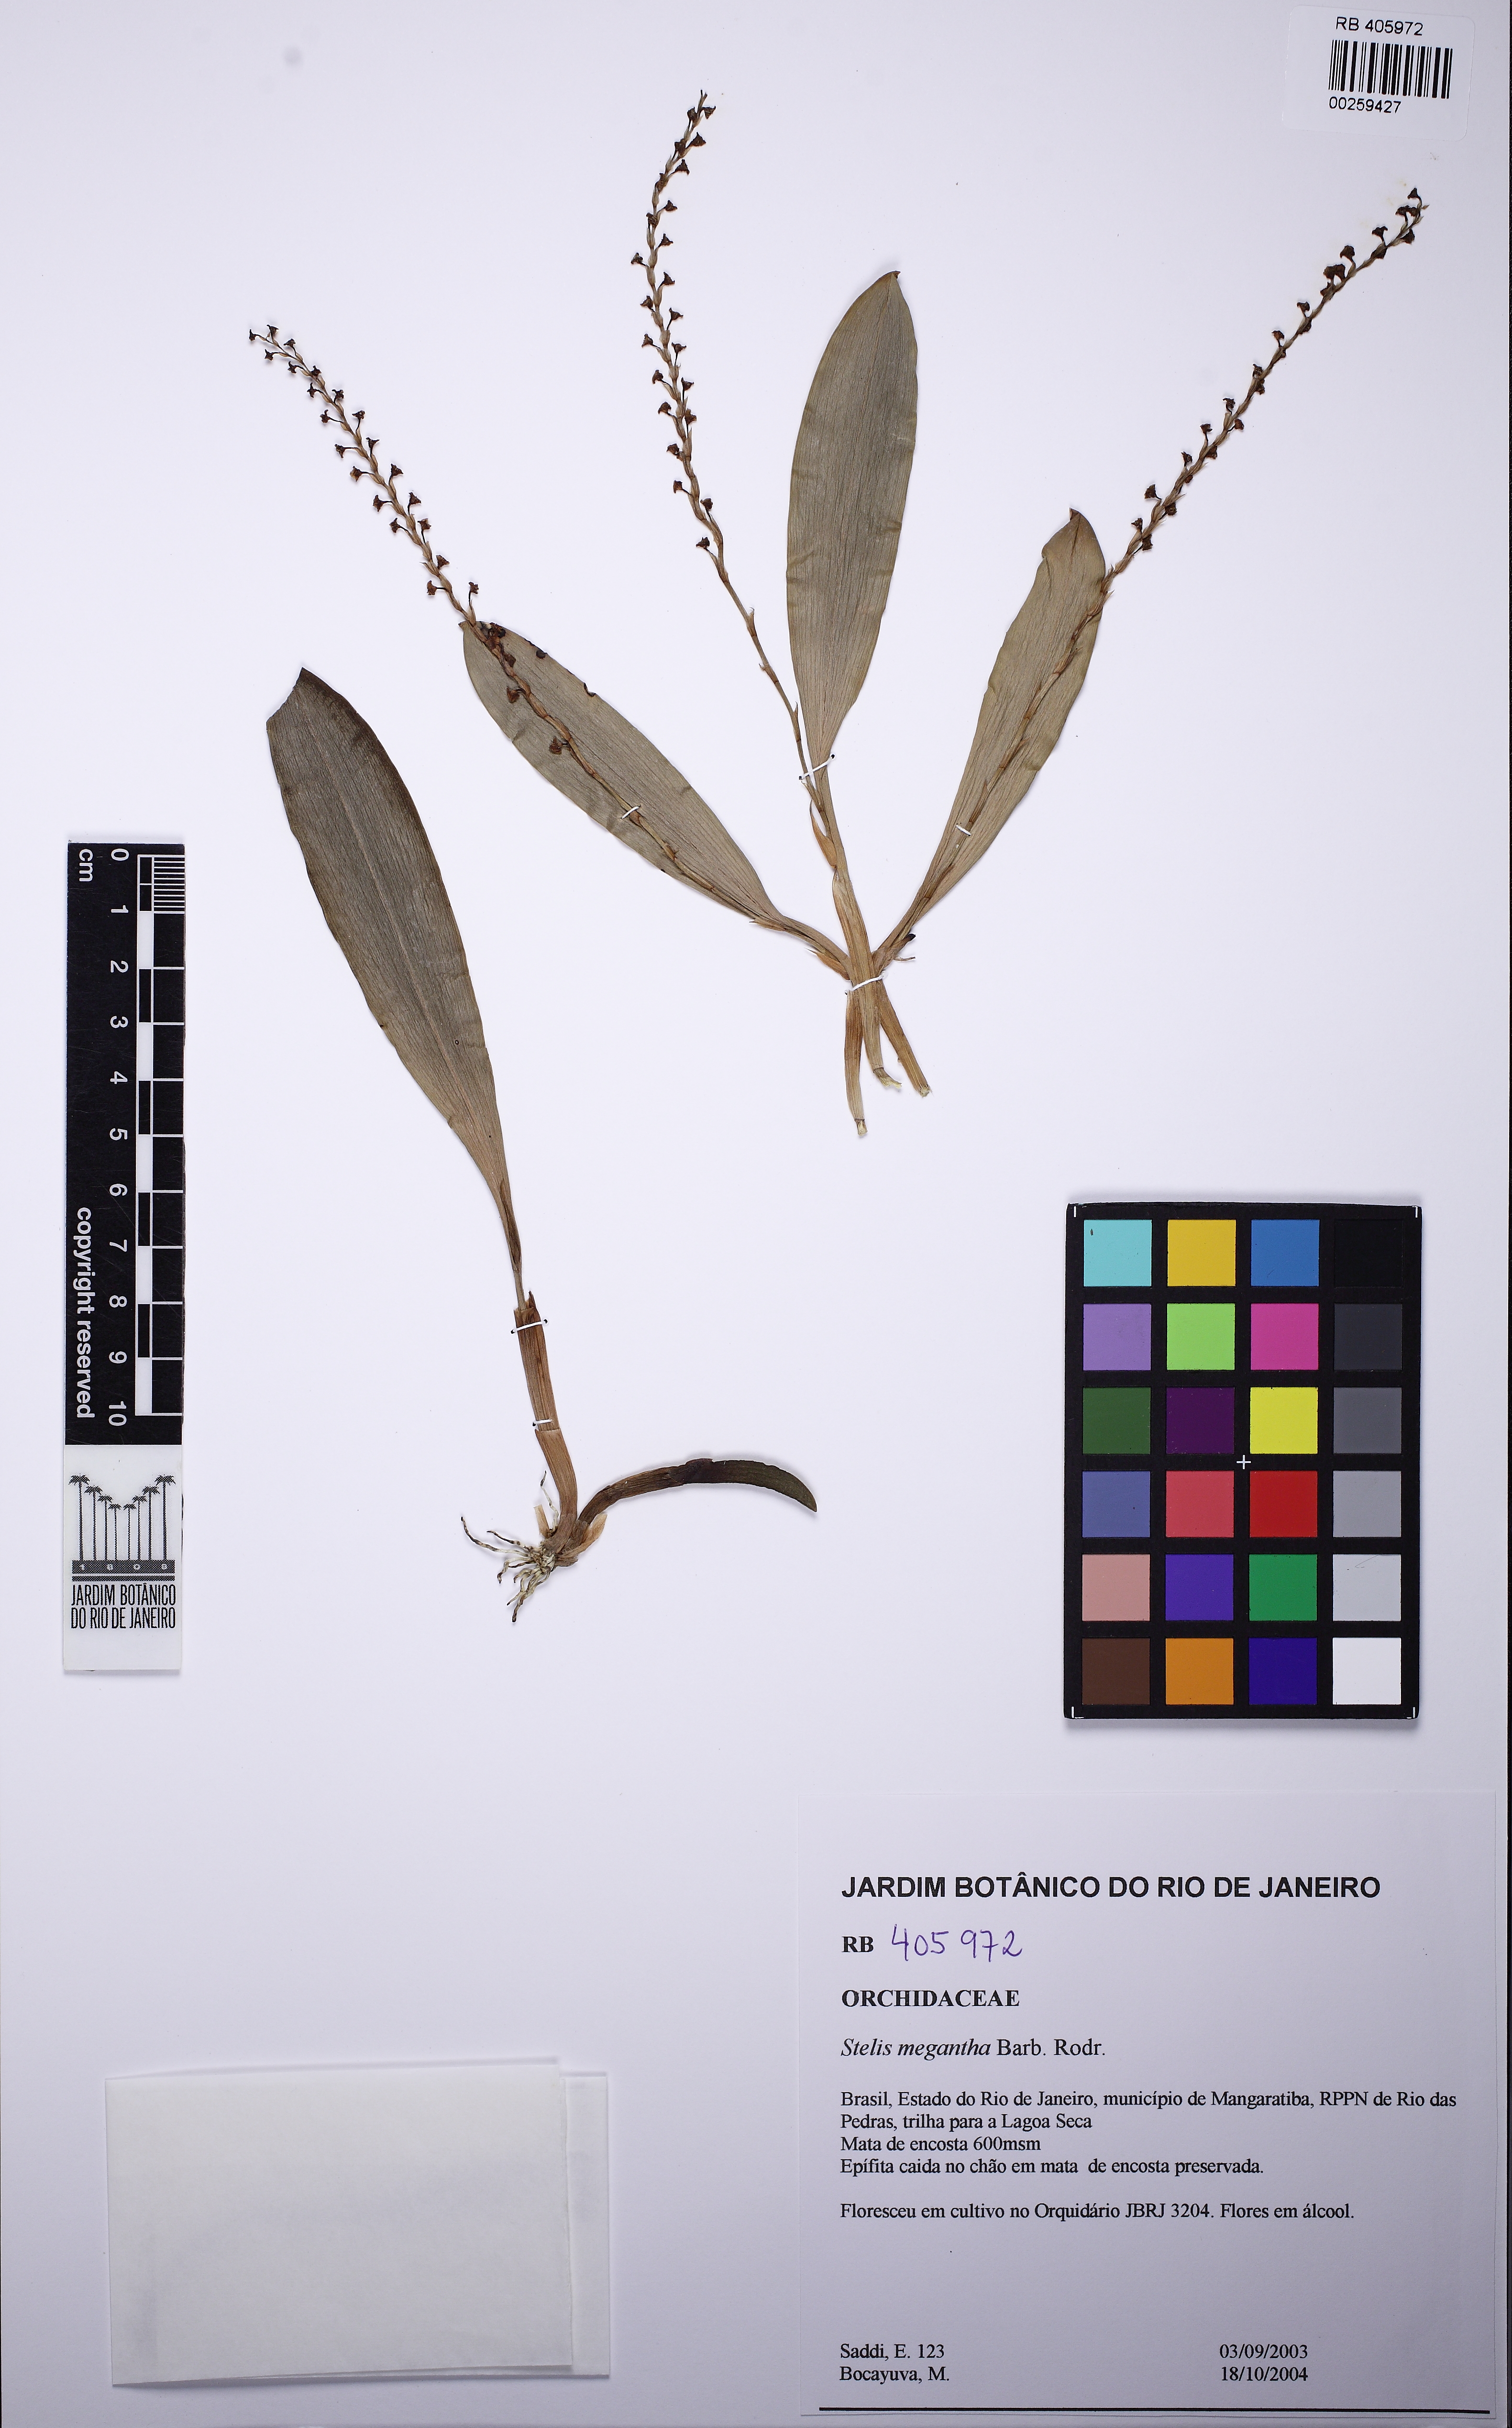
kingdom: Plantae
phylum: Tracheophyta
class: Liliopsida
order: Asparagales
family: Orchidaceae
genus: Stelis
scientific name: Stelis grandiflora
